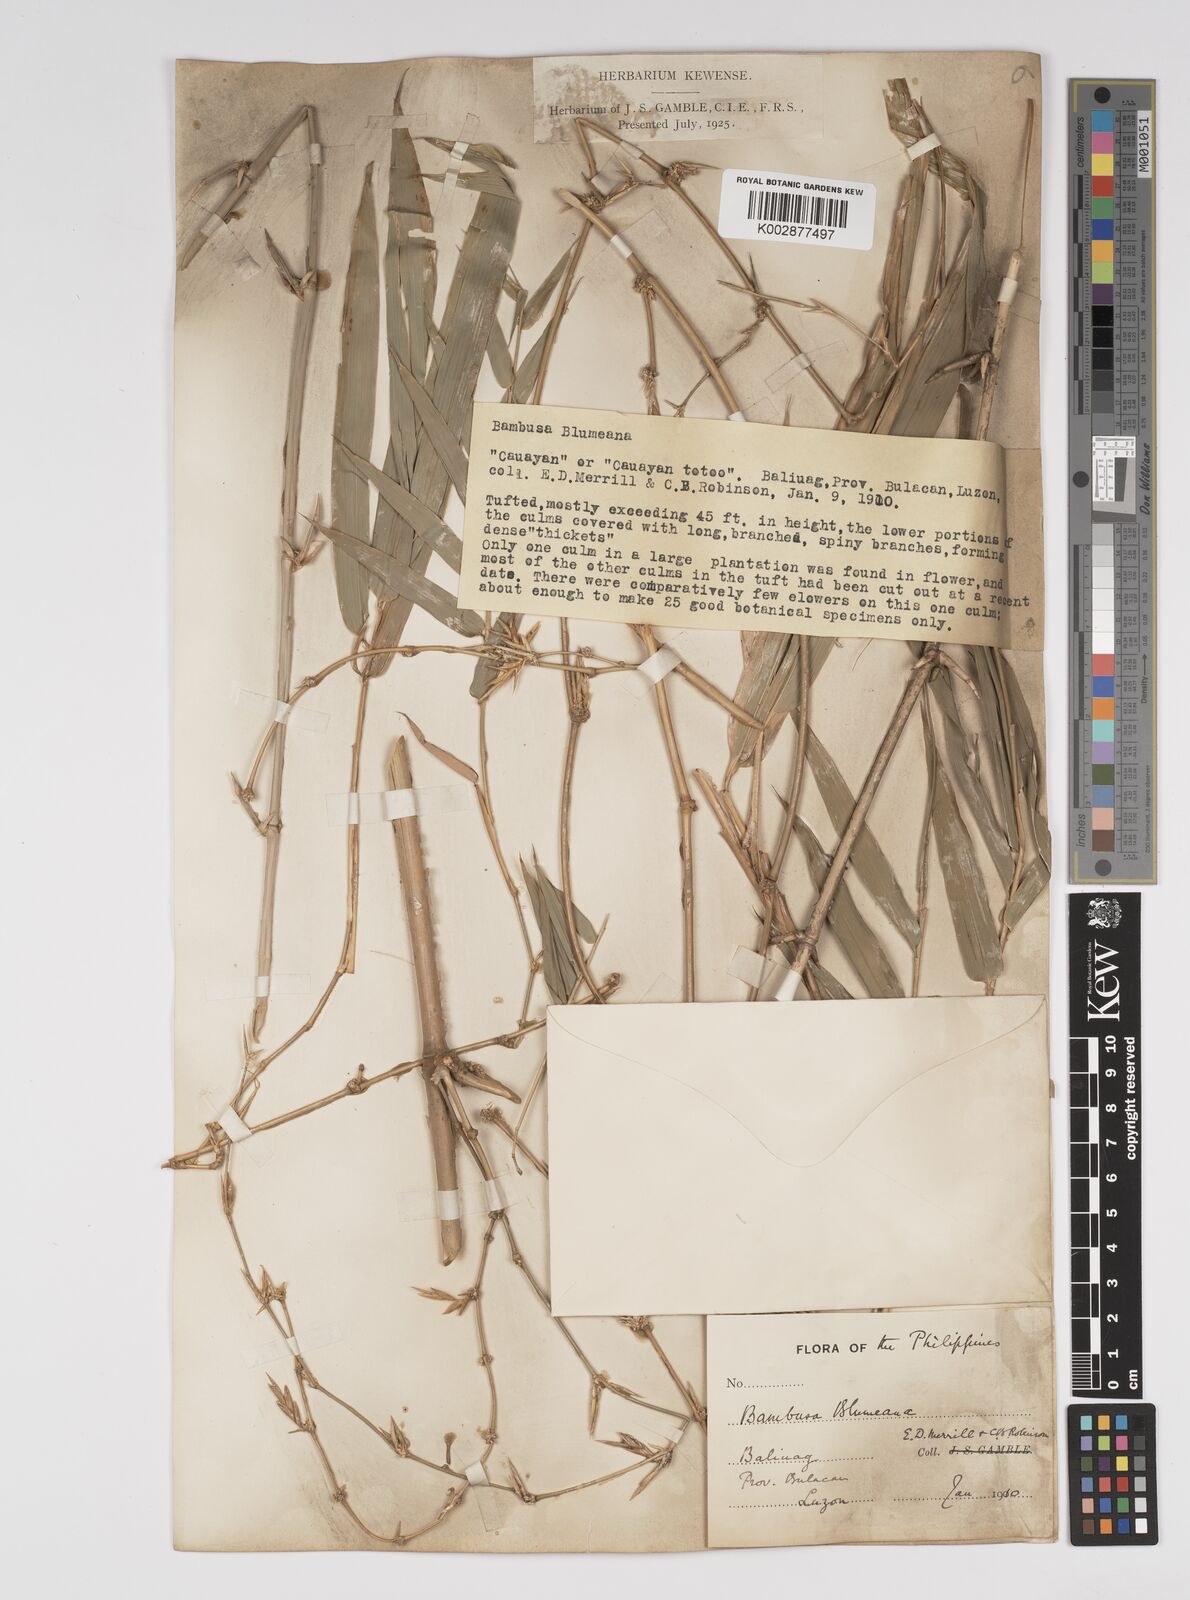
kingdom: Plantae
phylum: Tracheophyta
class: Liliopsida
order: Poales
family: Poaceae
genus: Bambusa
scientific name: Bambusa spinosa
